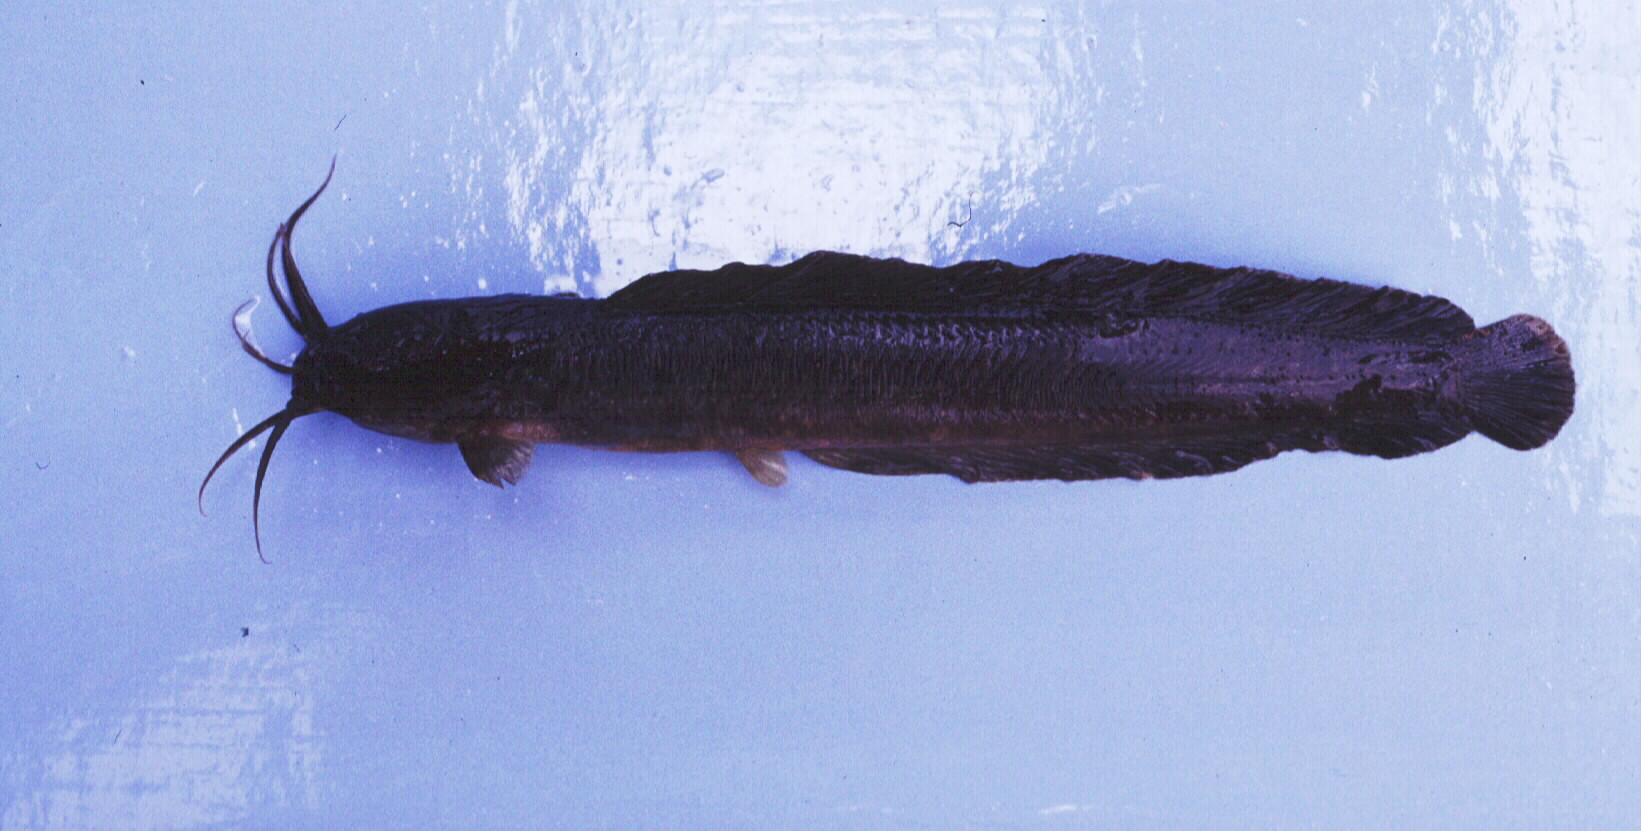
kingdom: Animalia
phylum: Chordata
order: Siluriformes
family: Clariidae
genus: Clarias
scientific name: Clarias theodorae
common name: Snake catfish
